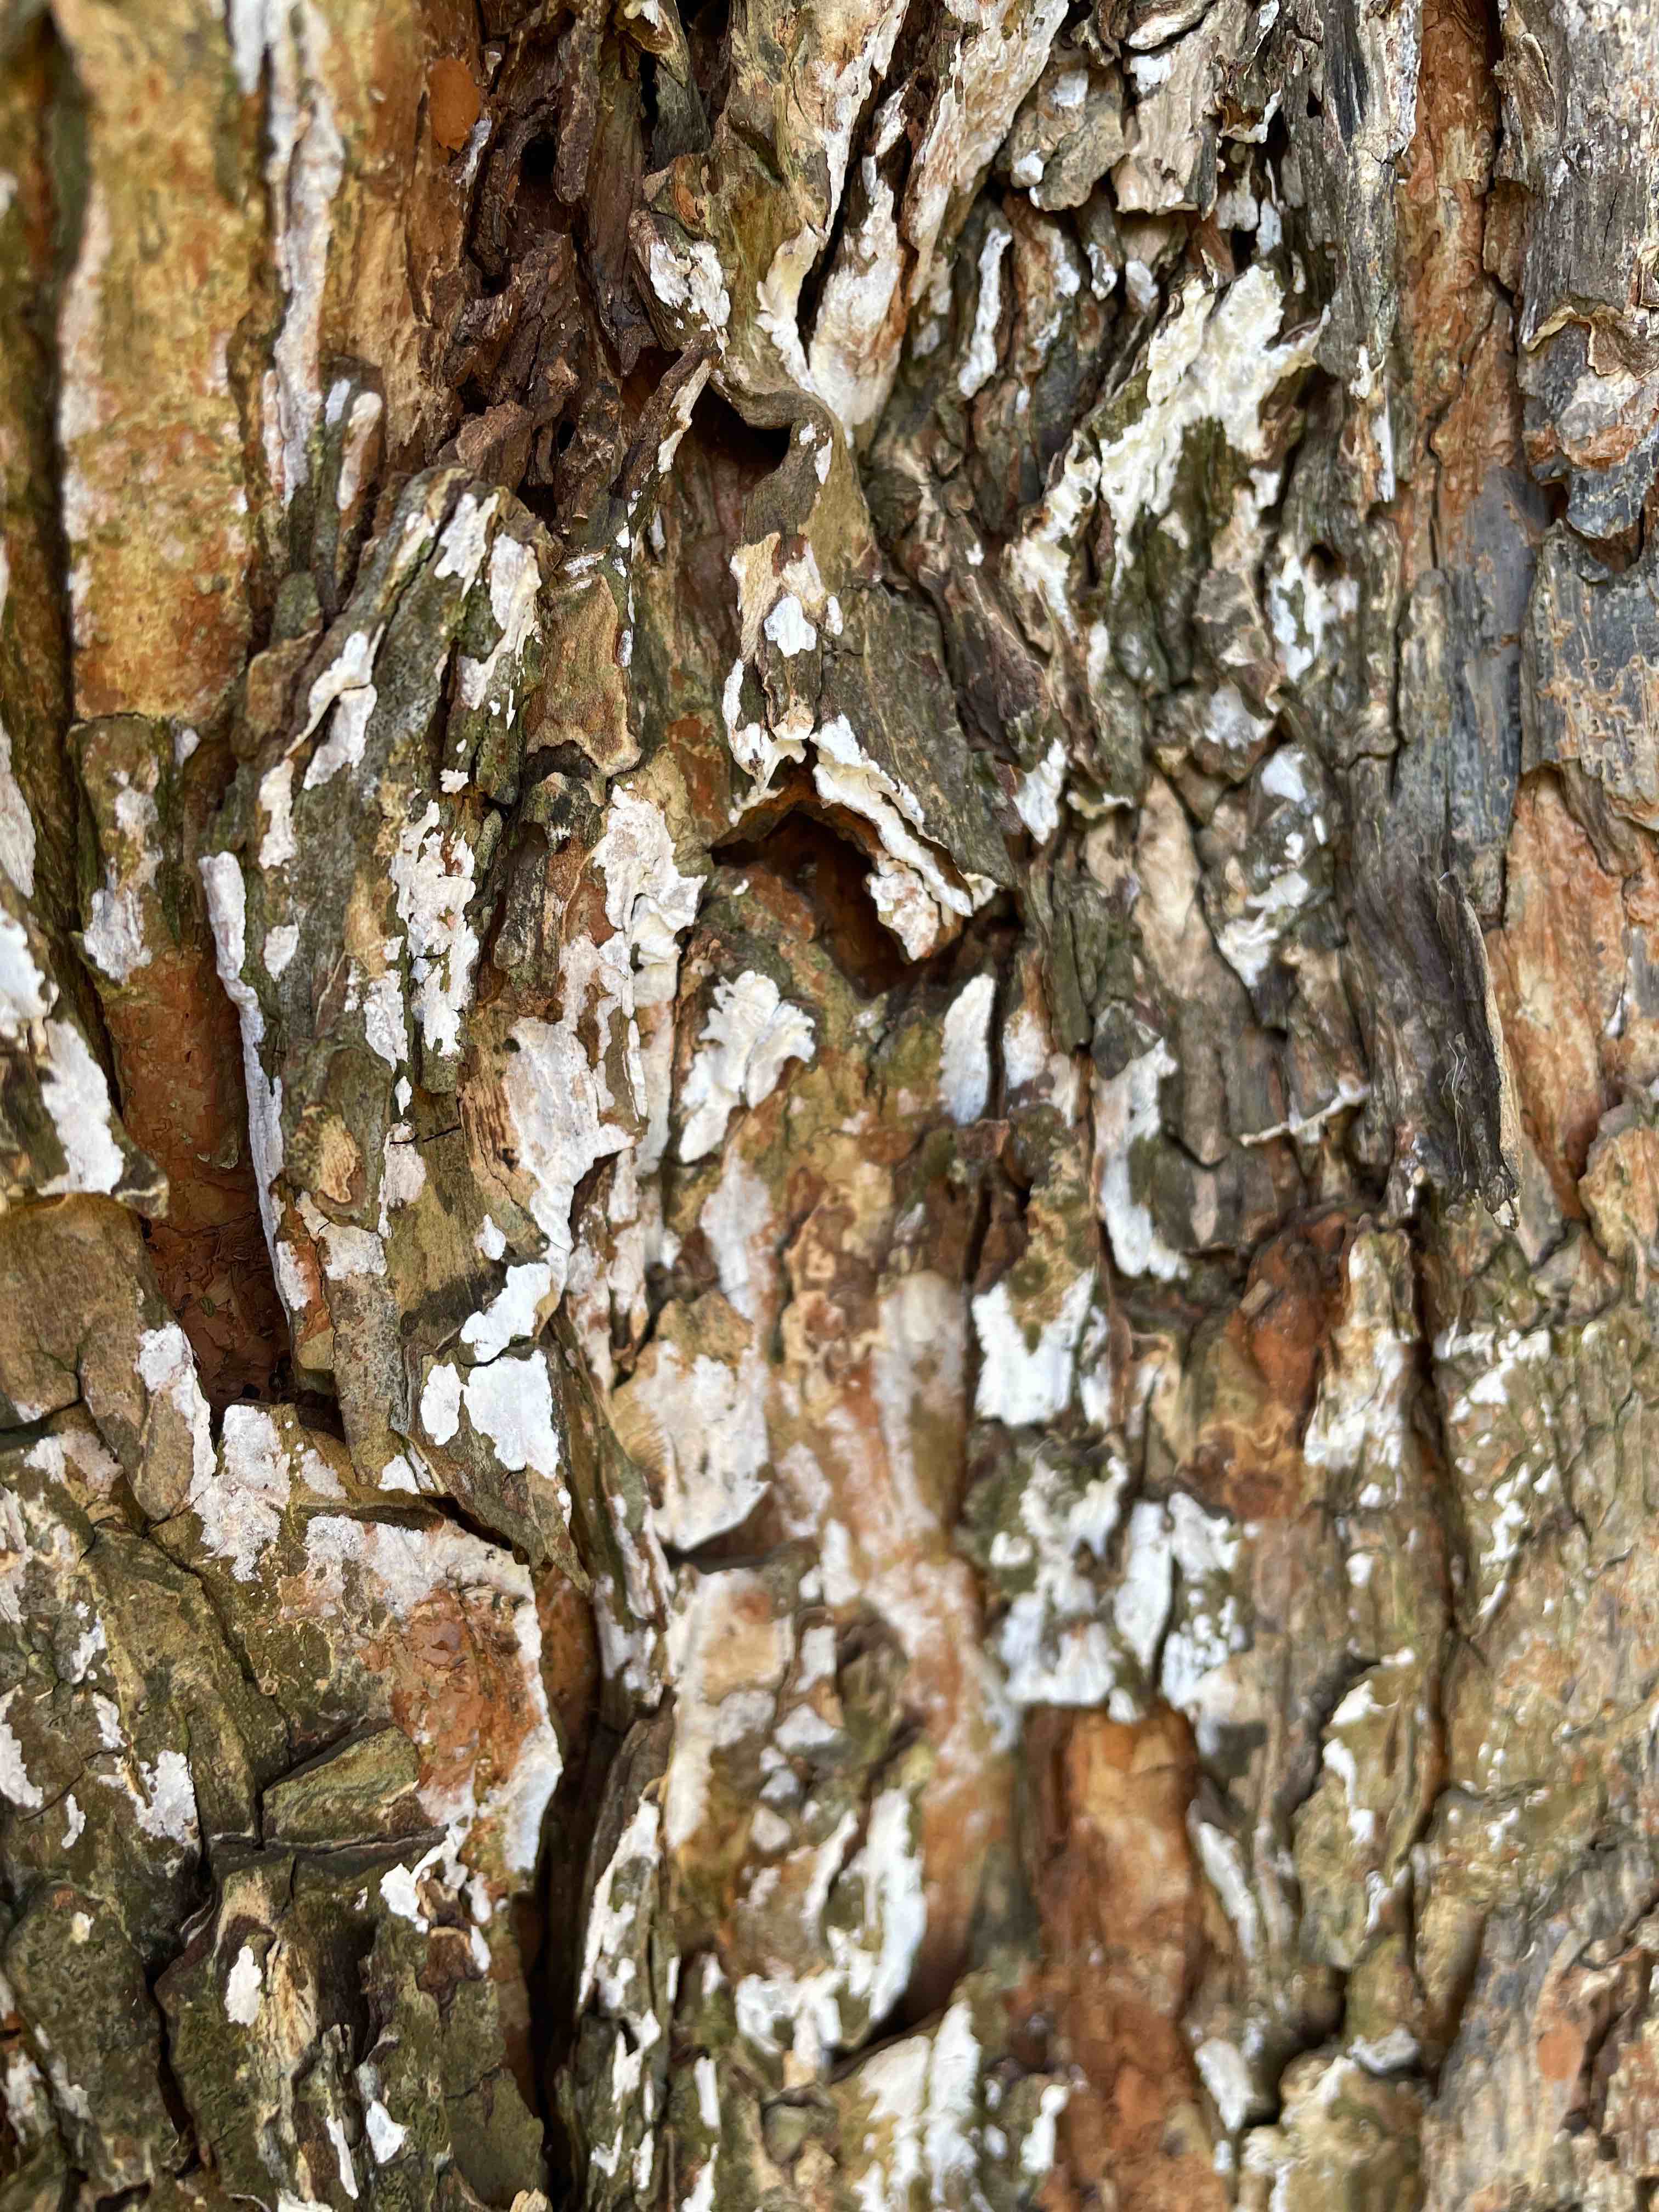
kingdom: Fungi
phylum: Basidiomycota
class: Agaricomycetes
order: Agaricales
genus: Dendrothele
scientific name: Dendrothele acerina
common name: navr-kalkplet
